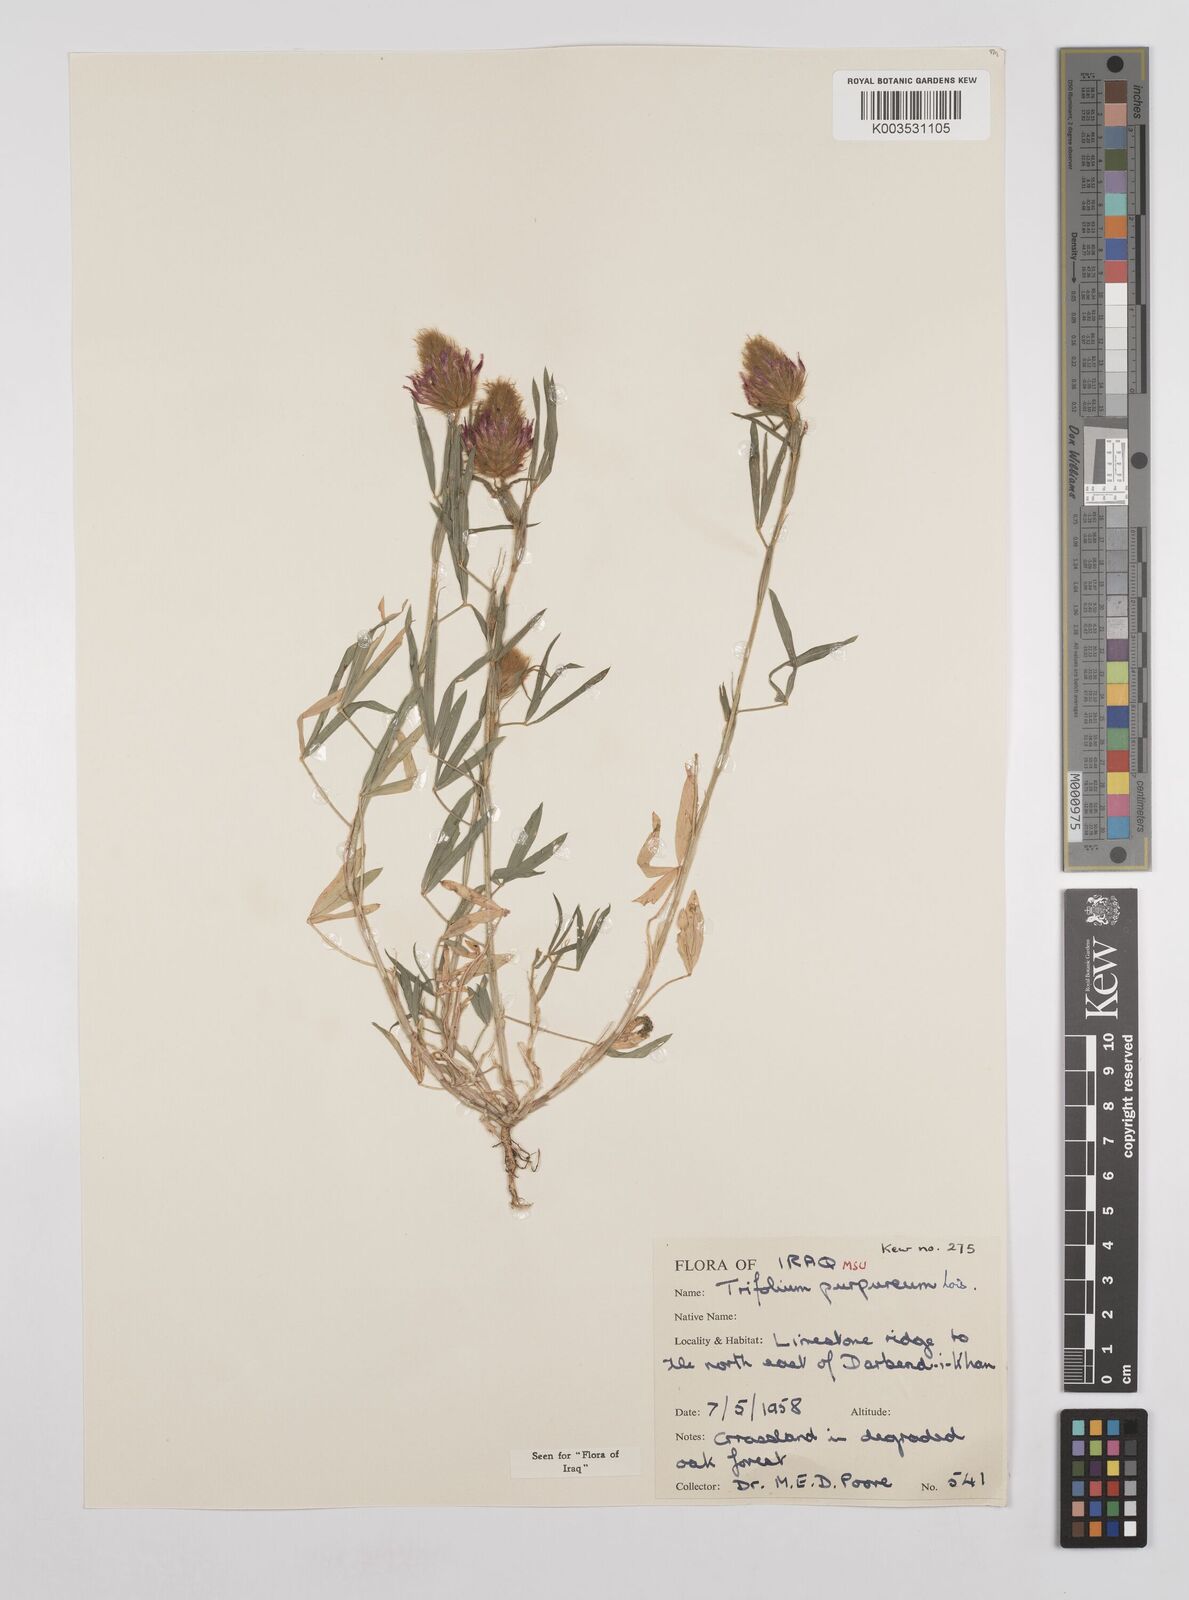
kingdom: Plantae
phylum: Tracheophyta
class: Magnoliopsida
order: Fabales
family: Fabaceae
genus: Trifolium
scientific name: Trifolium purpureum
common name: Purple clover
